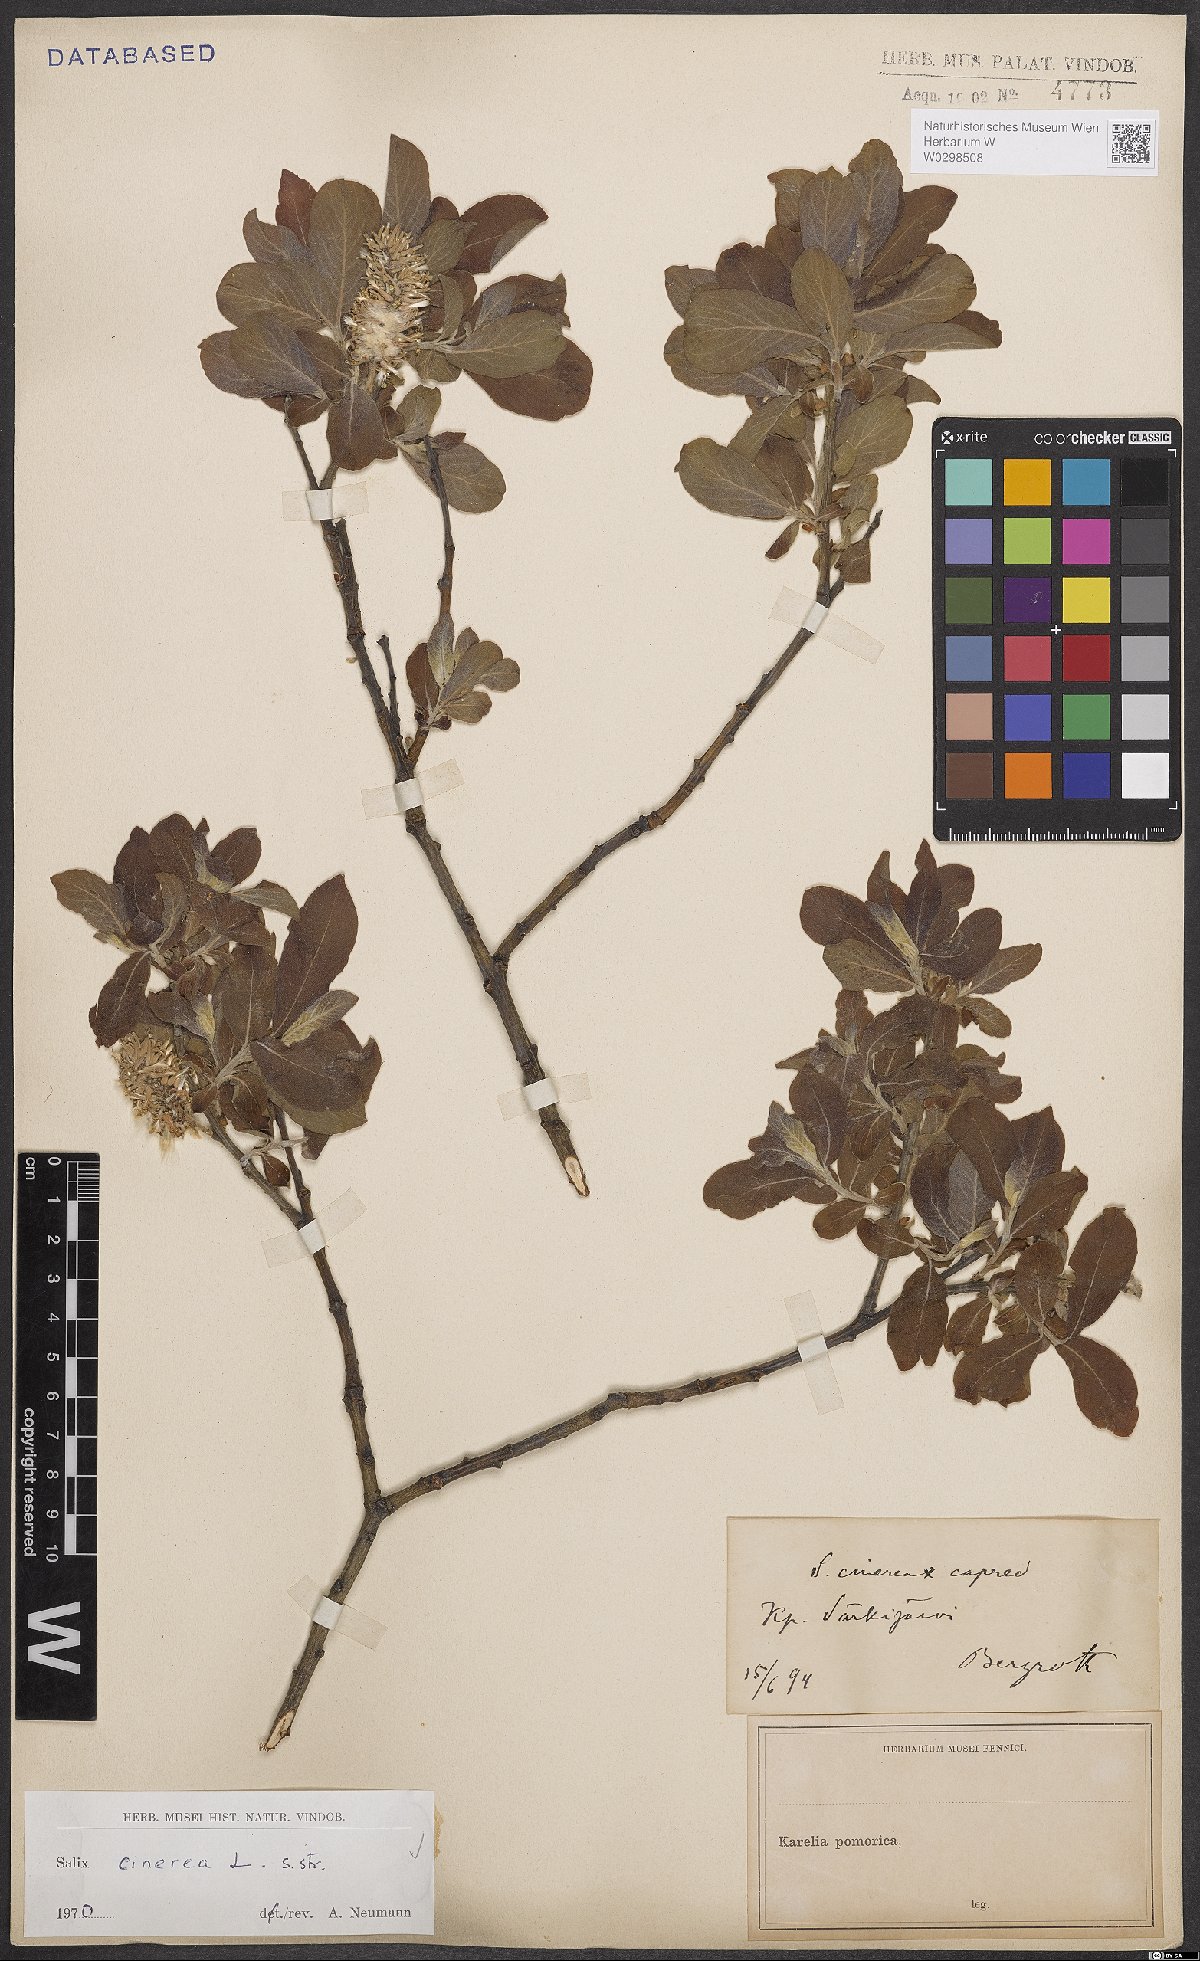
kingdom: Plantae
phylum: Tracheophyta
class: Magnoliopsida
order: Malpighiales
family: Salicaceae
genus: Salix
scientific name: Salix cinerea
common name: Common sallow
